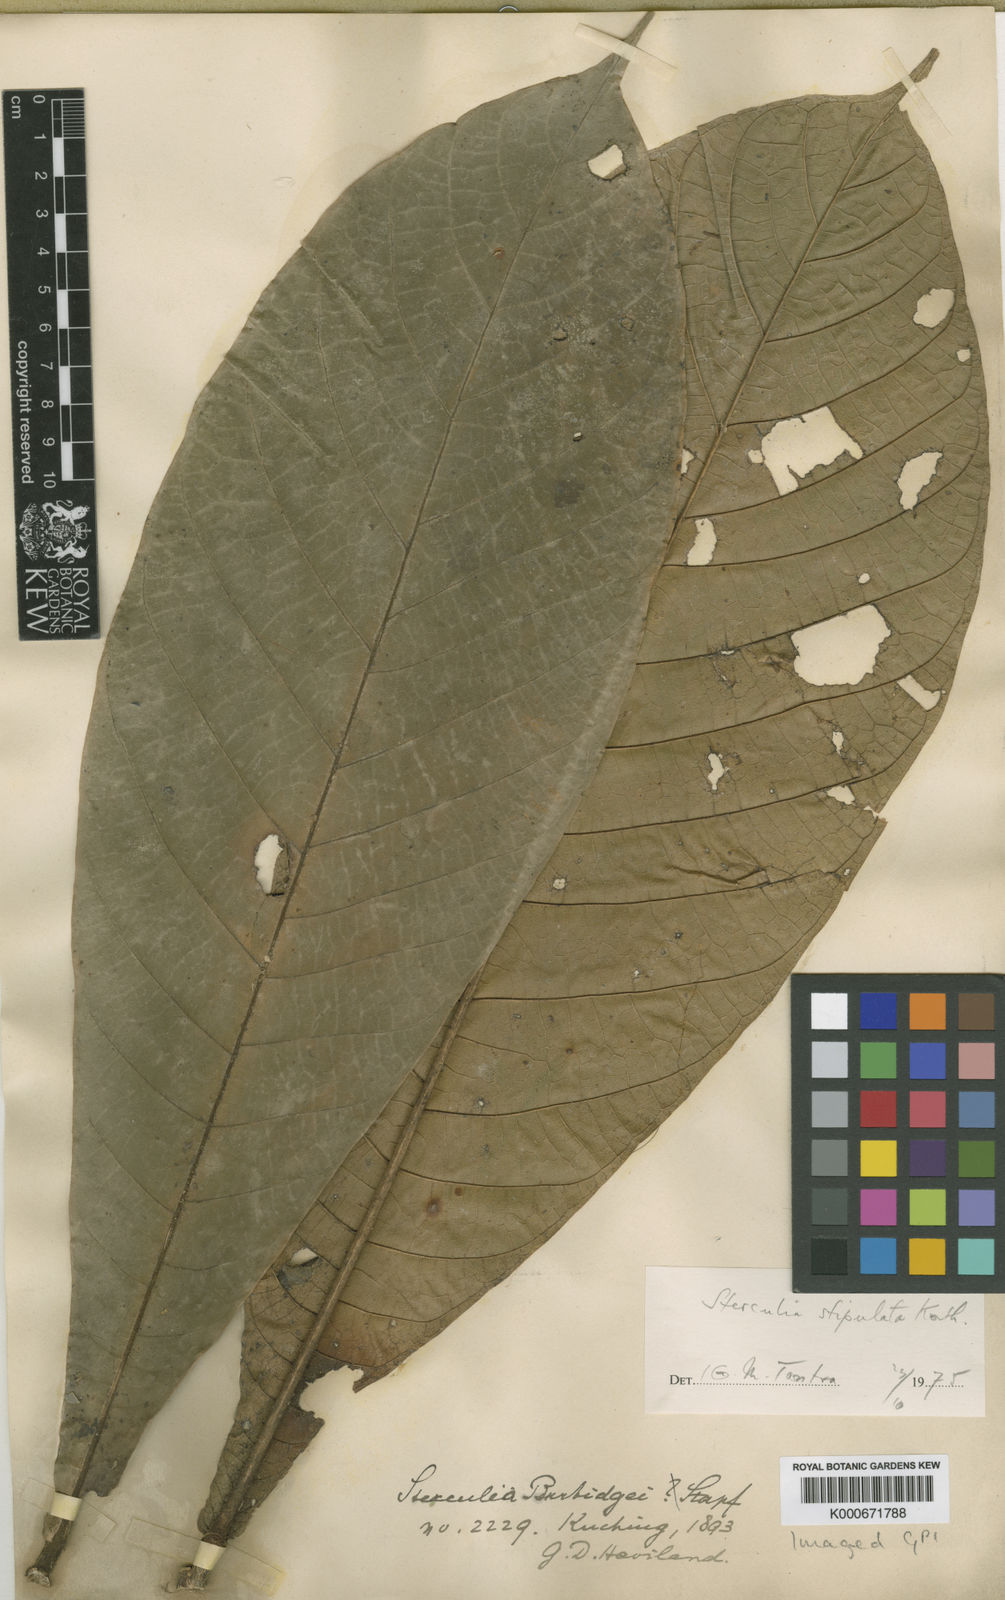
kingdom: Plantae
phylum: Tracheophyta
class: Magnoliopsida
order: Malvales
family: Malvaceae
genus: Sterculia
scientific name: Sterculia stipulata
